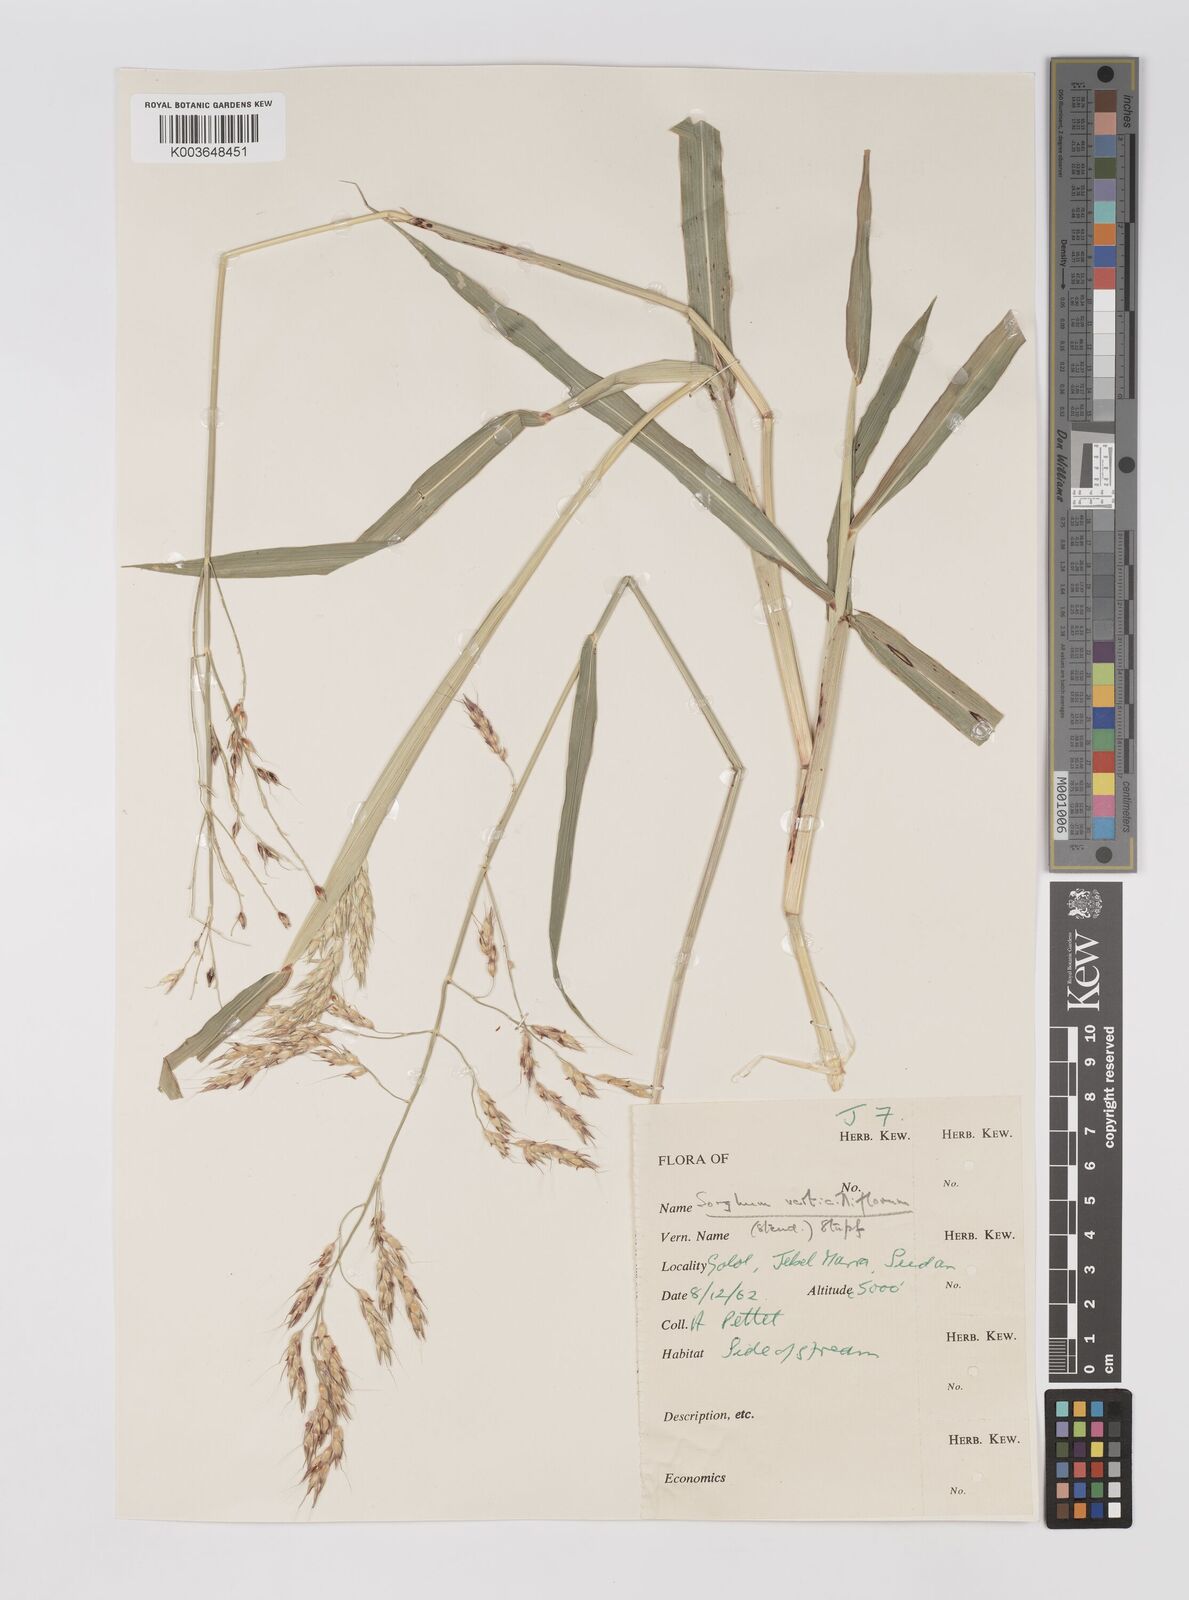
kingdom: Plantae
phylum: Tracheophyta
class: Liliopsida
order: Poales
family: Poaceae
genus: Sorghum
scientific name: Sorghum arundinaceum
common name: Sorghum
